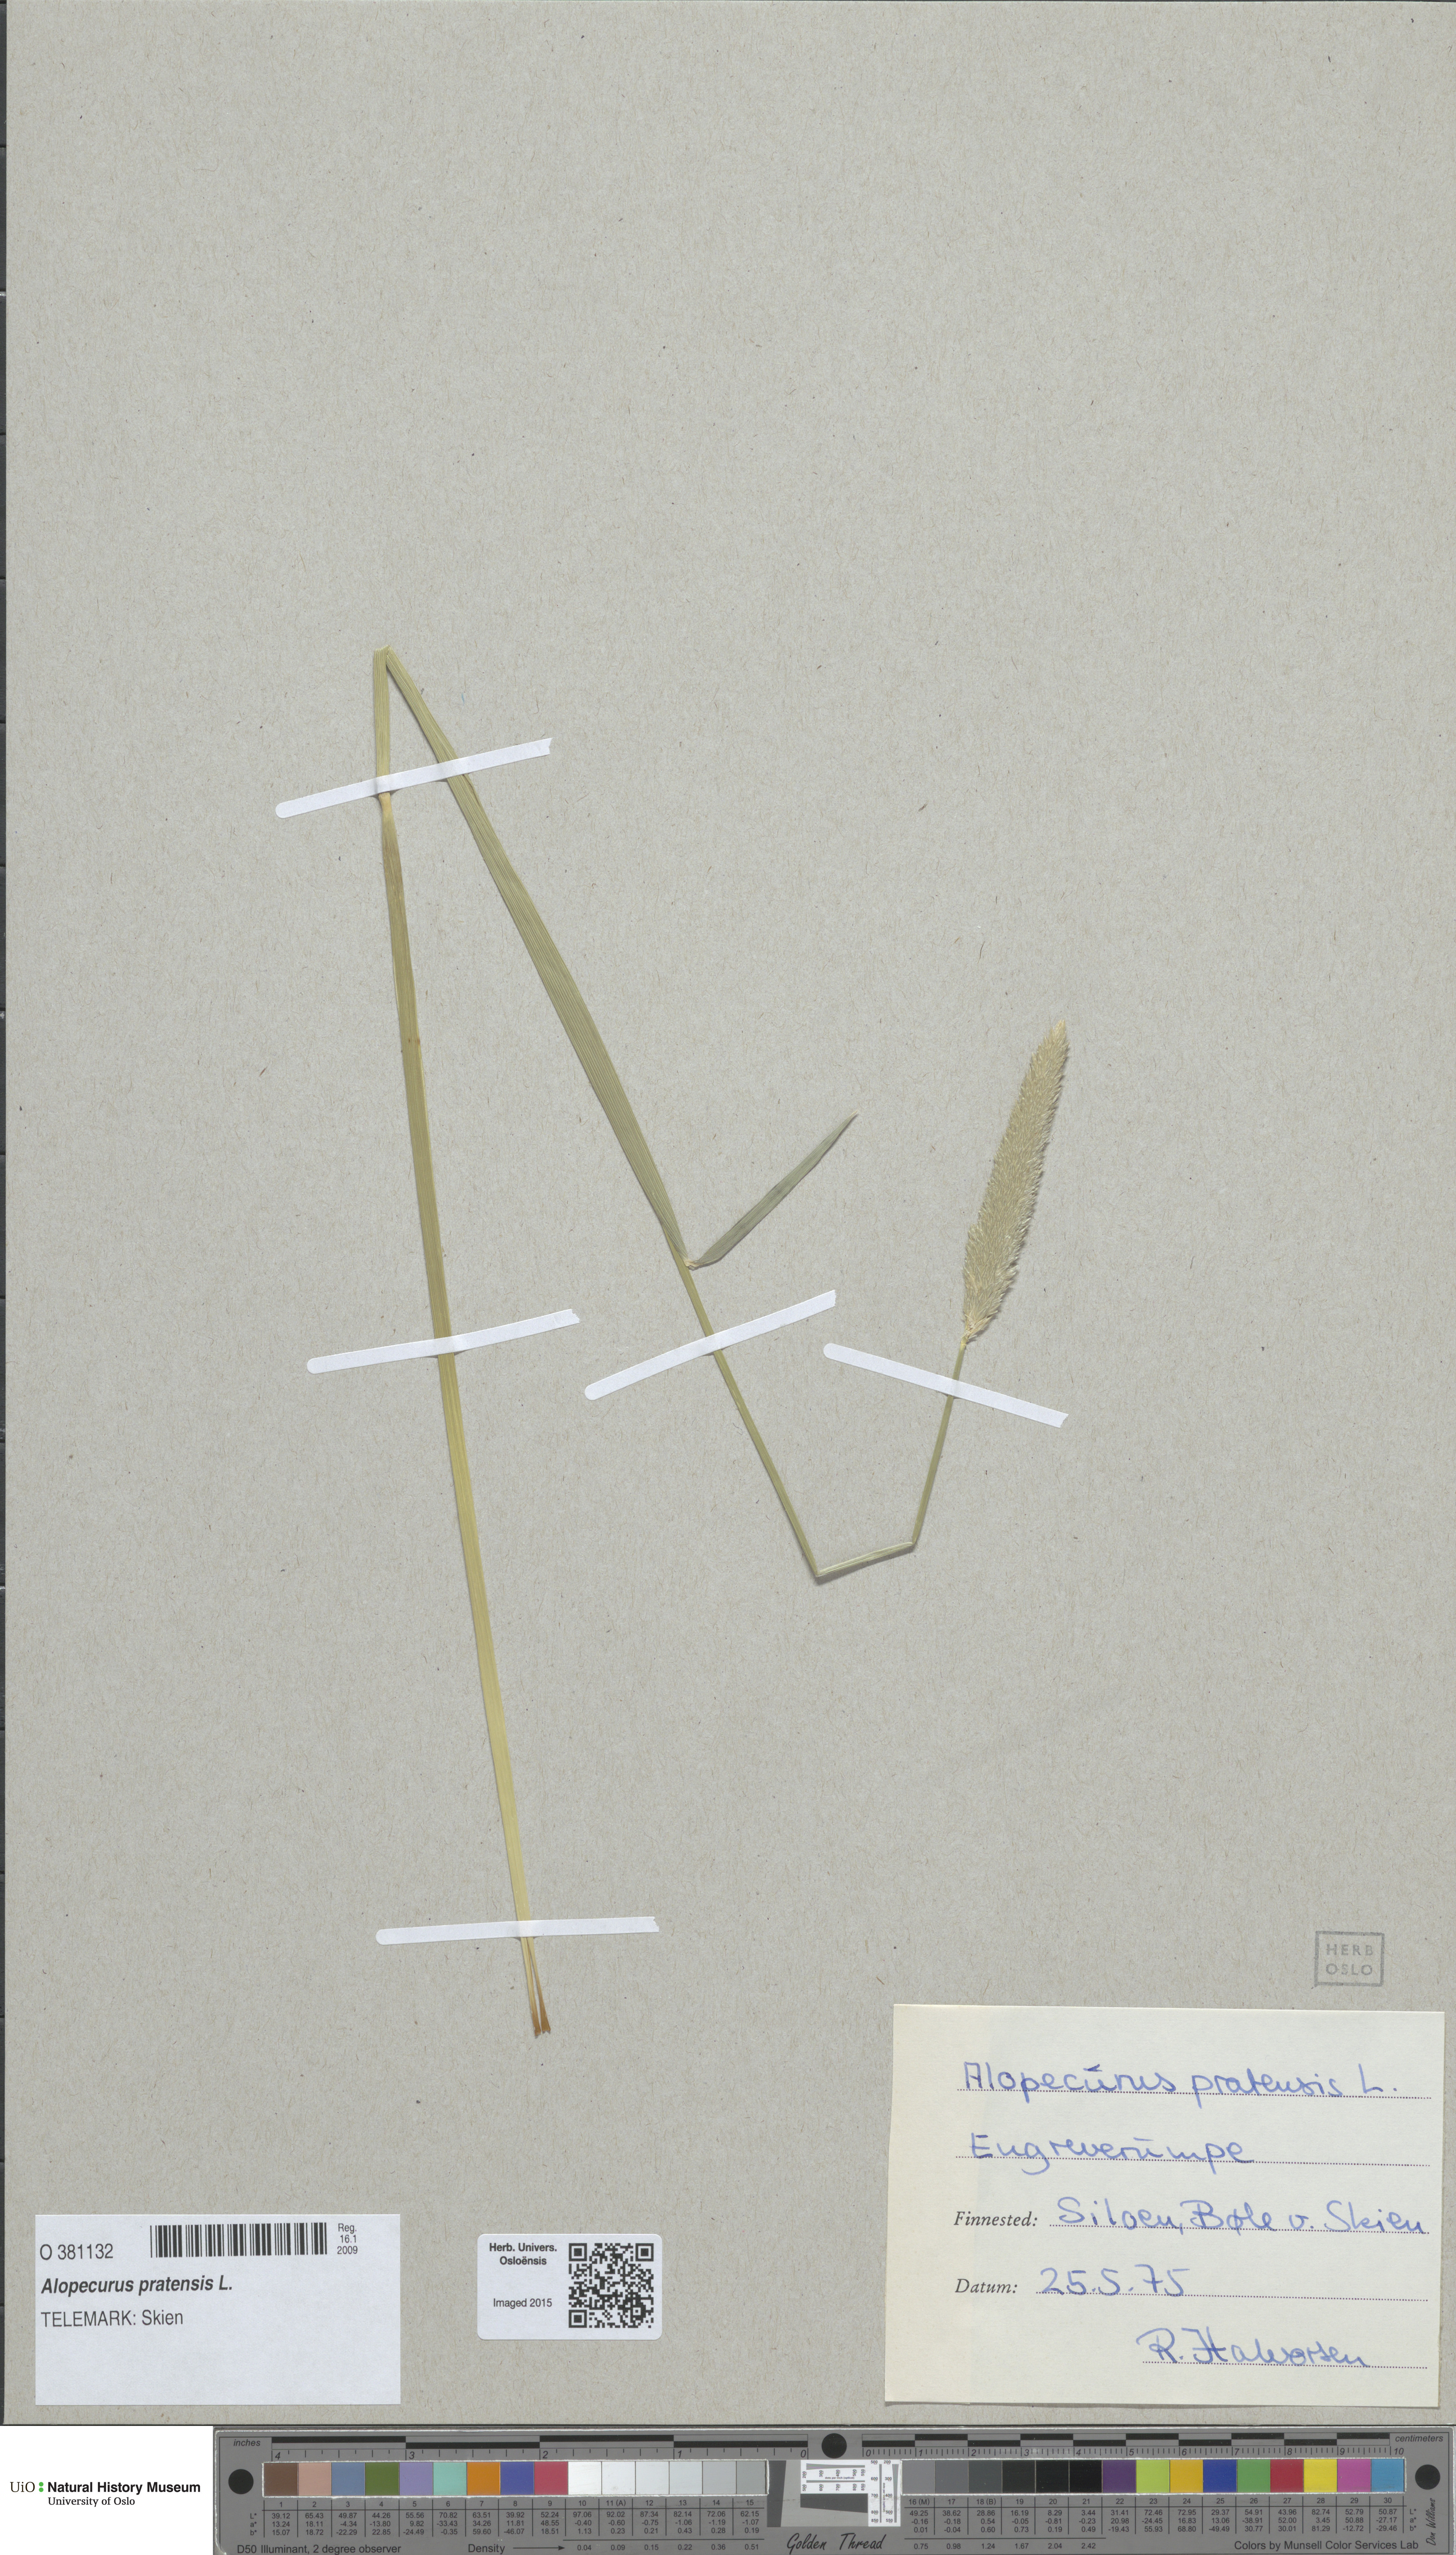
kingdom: Plantae
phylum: Tracheophyta
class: Liliopsida
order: Poales
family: Poaceae
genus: Alopecurus
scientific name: Alopecurus pratensis
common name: Meadow foxtail
